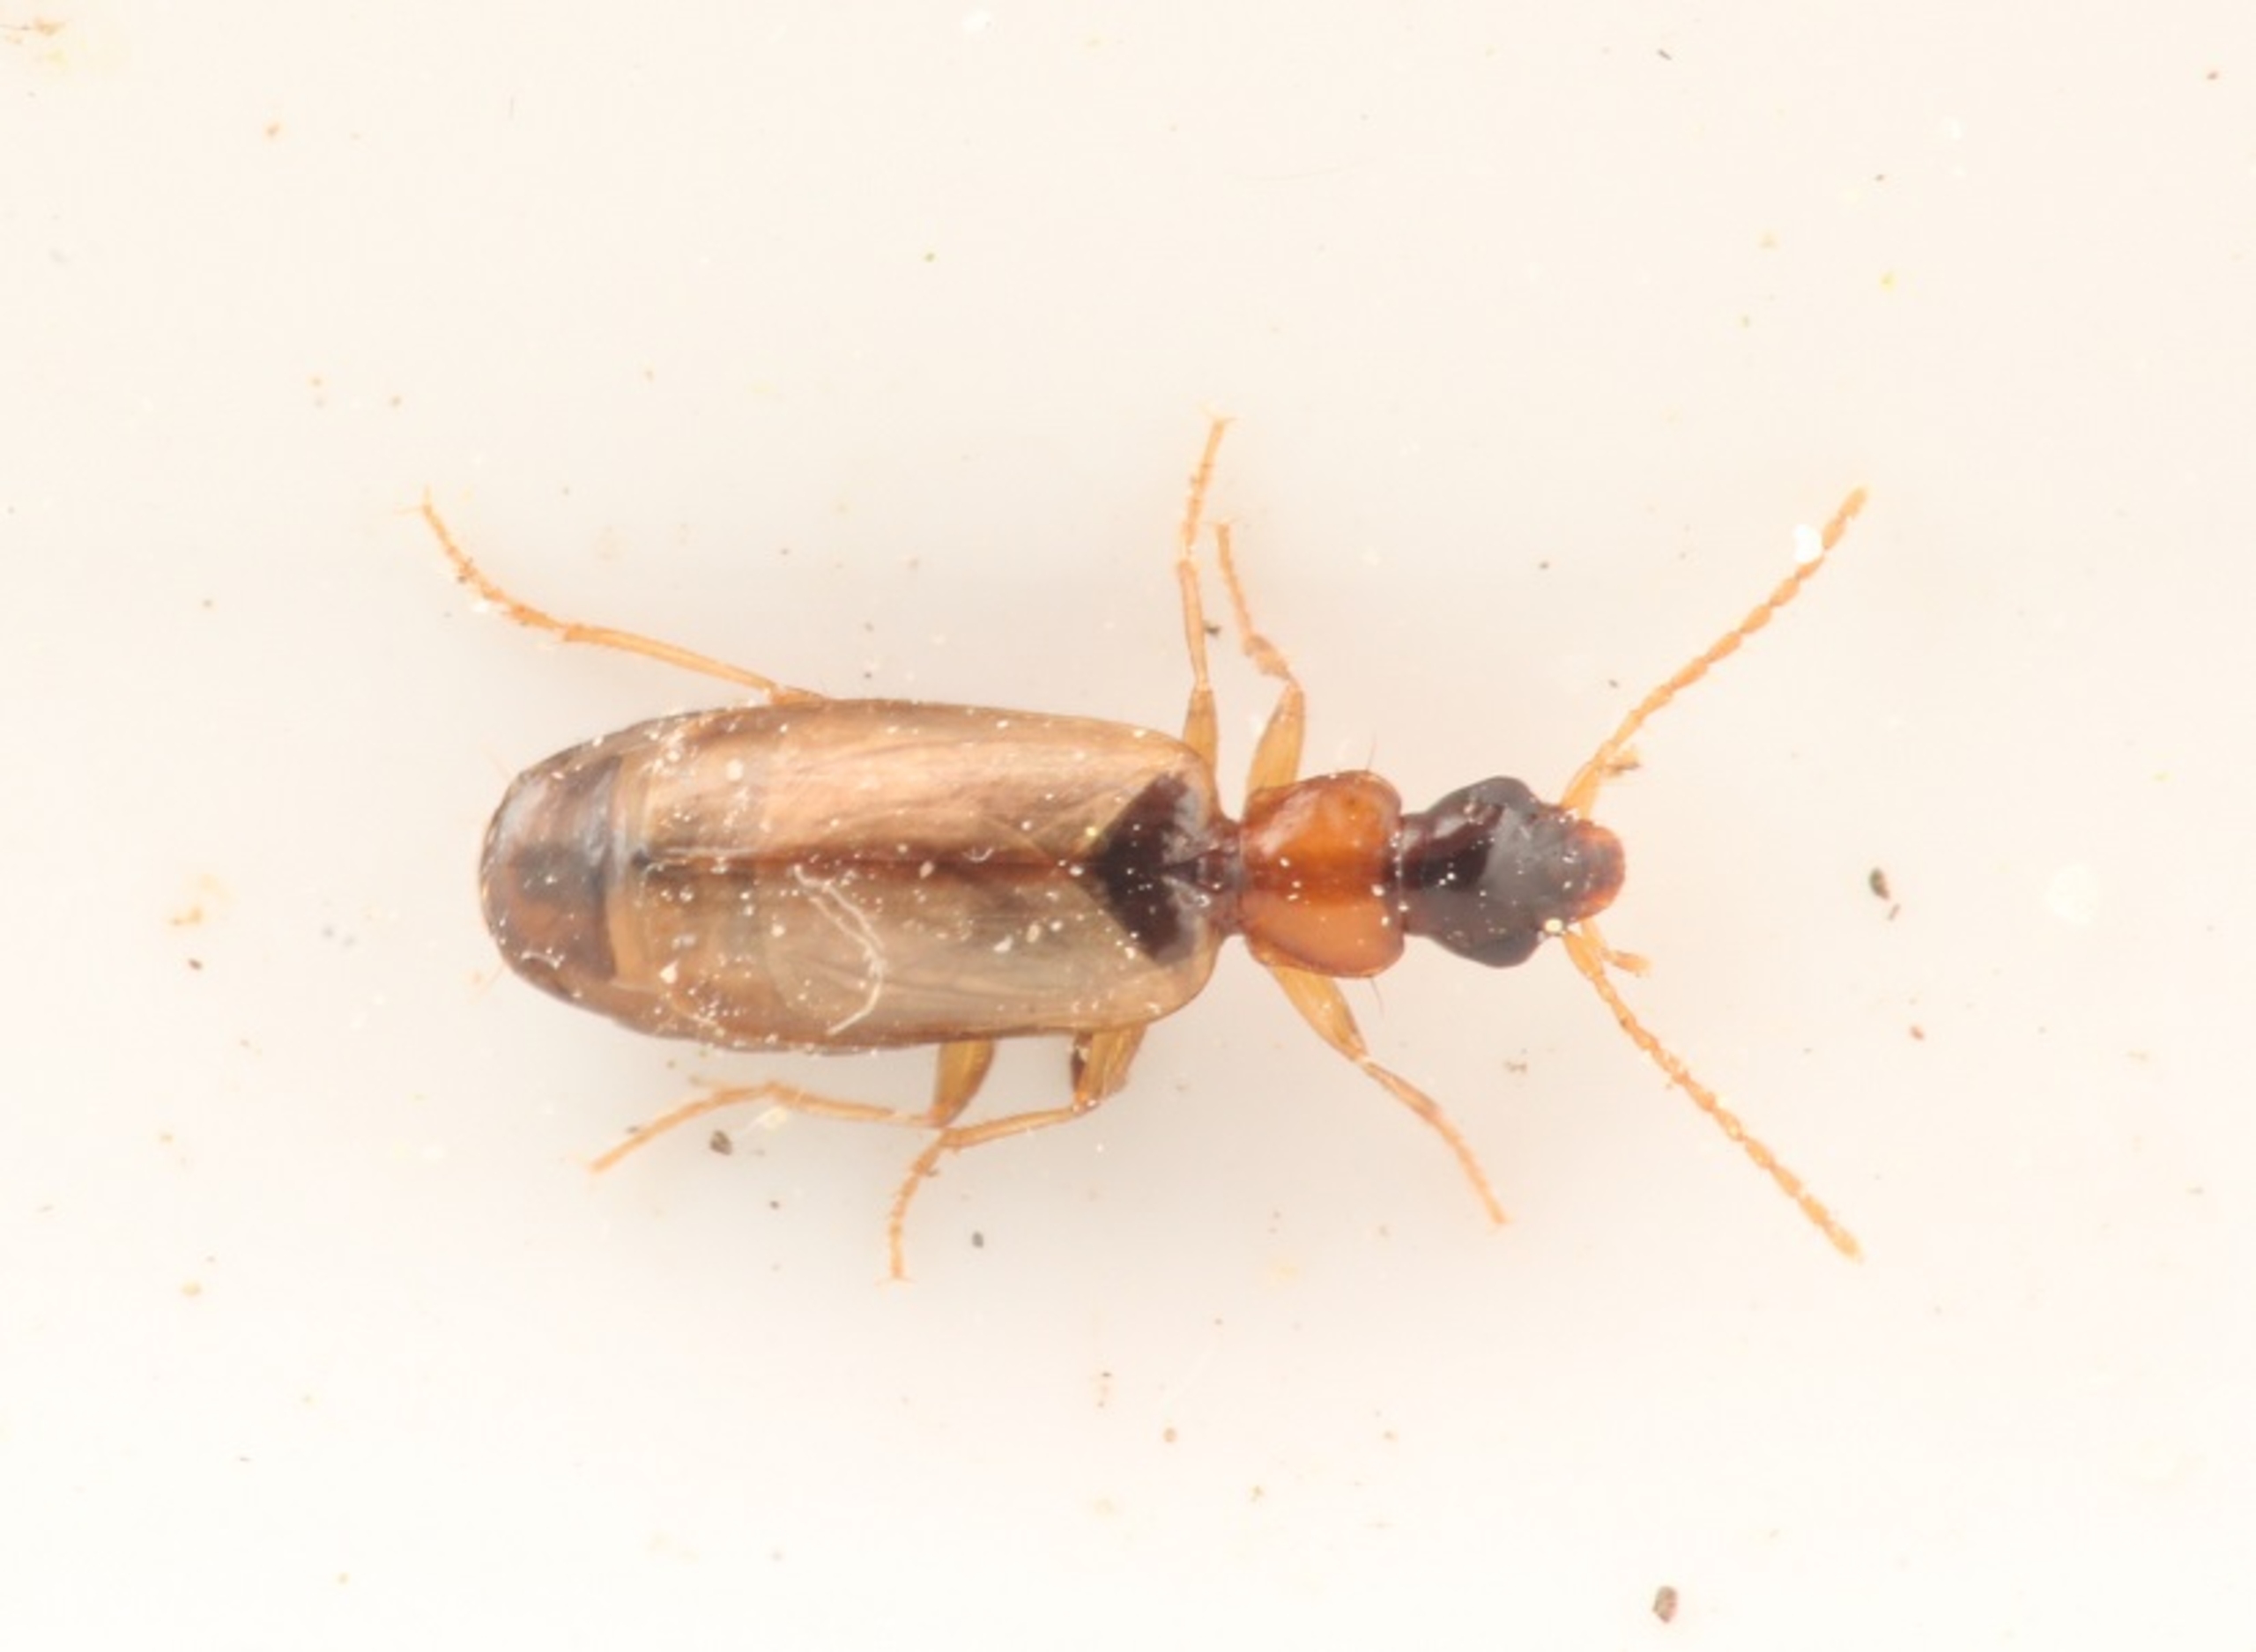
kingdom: Animalia
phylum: Arthropoda
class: Insecta
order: Coleoptera
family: Carabidae
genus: Philorhizus
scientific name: Philorhizus melanocephalus
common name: Bleggul sivløber
